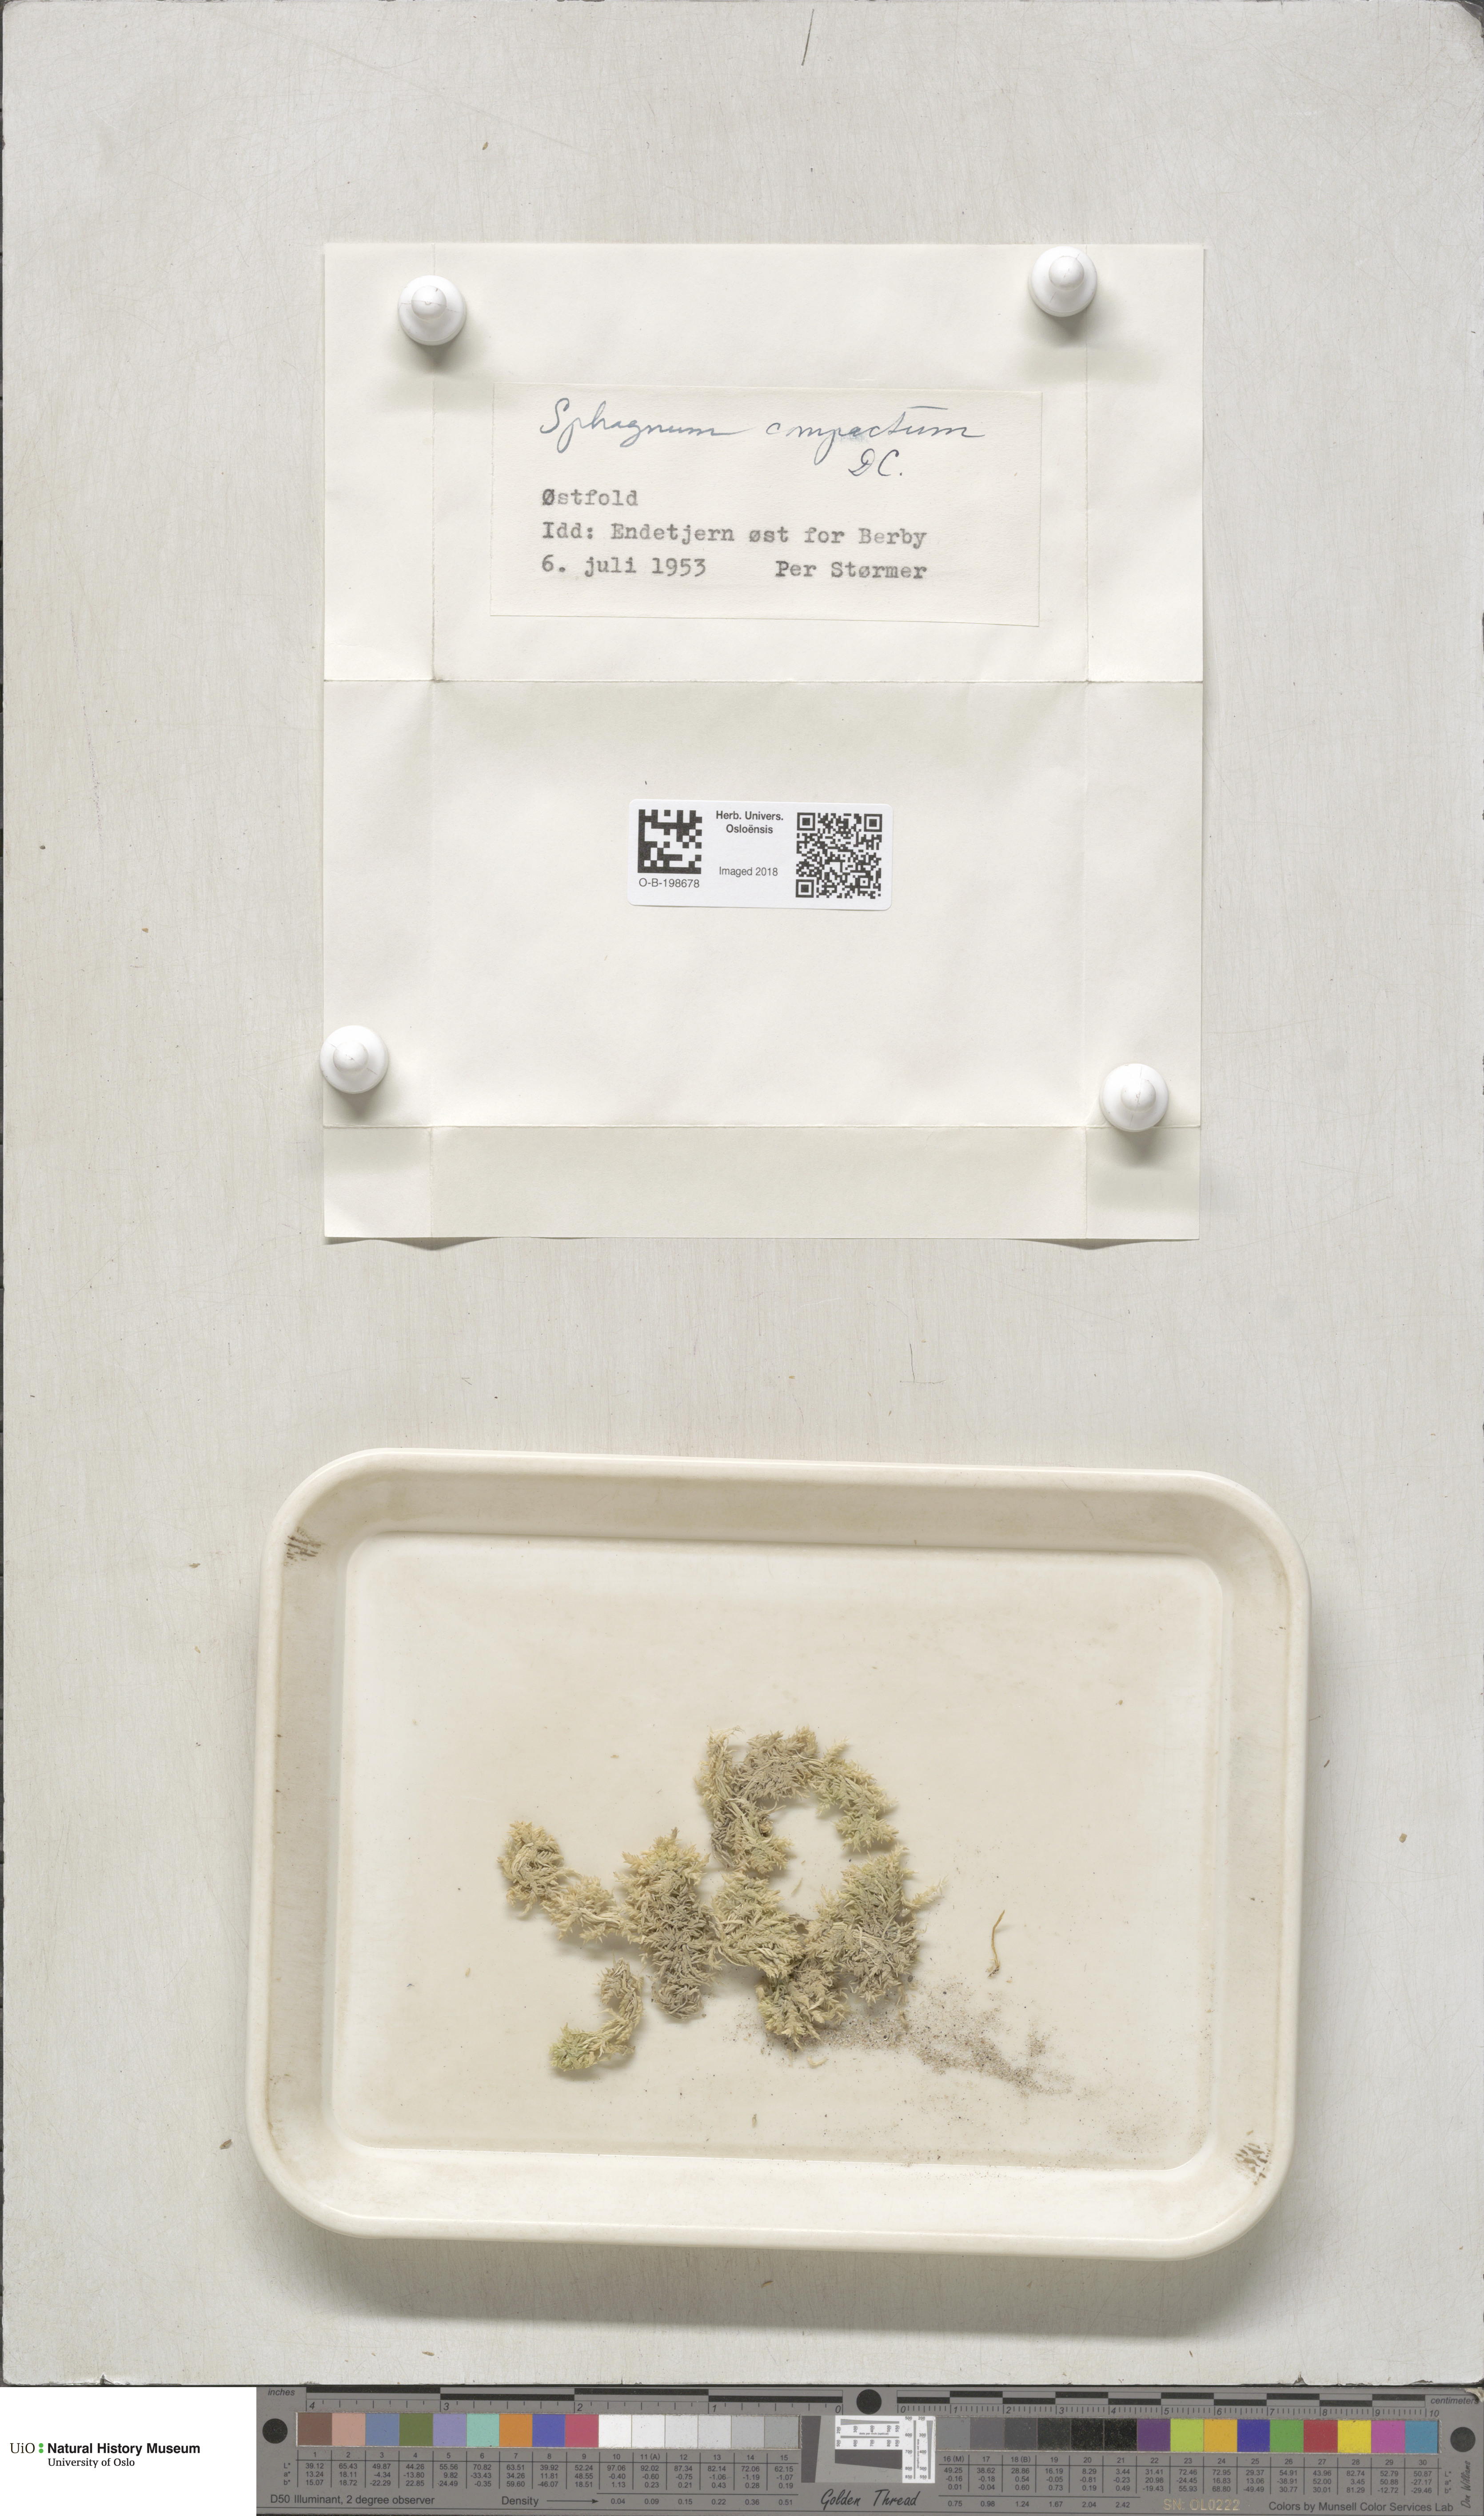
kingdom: Plantae
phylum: Bryophyta
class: Sphagnopsida
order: Sphagnales
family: Sphagnaceae
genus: Sphagnum
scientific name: Sphagnum compactum
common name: Compact peat moss
